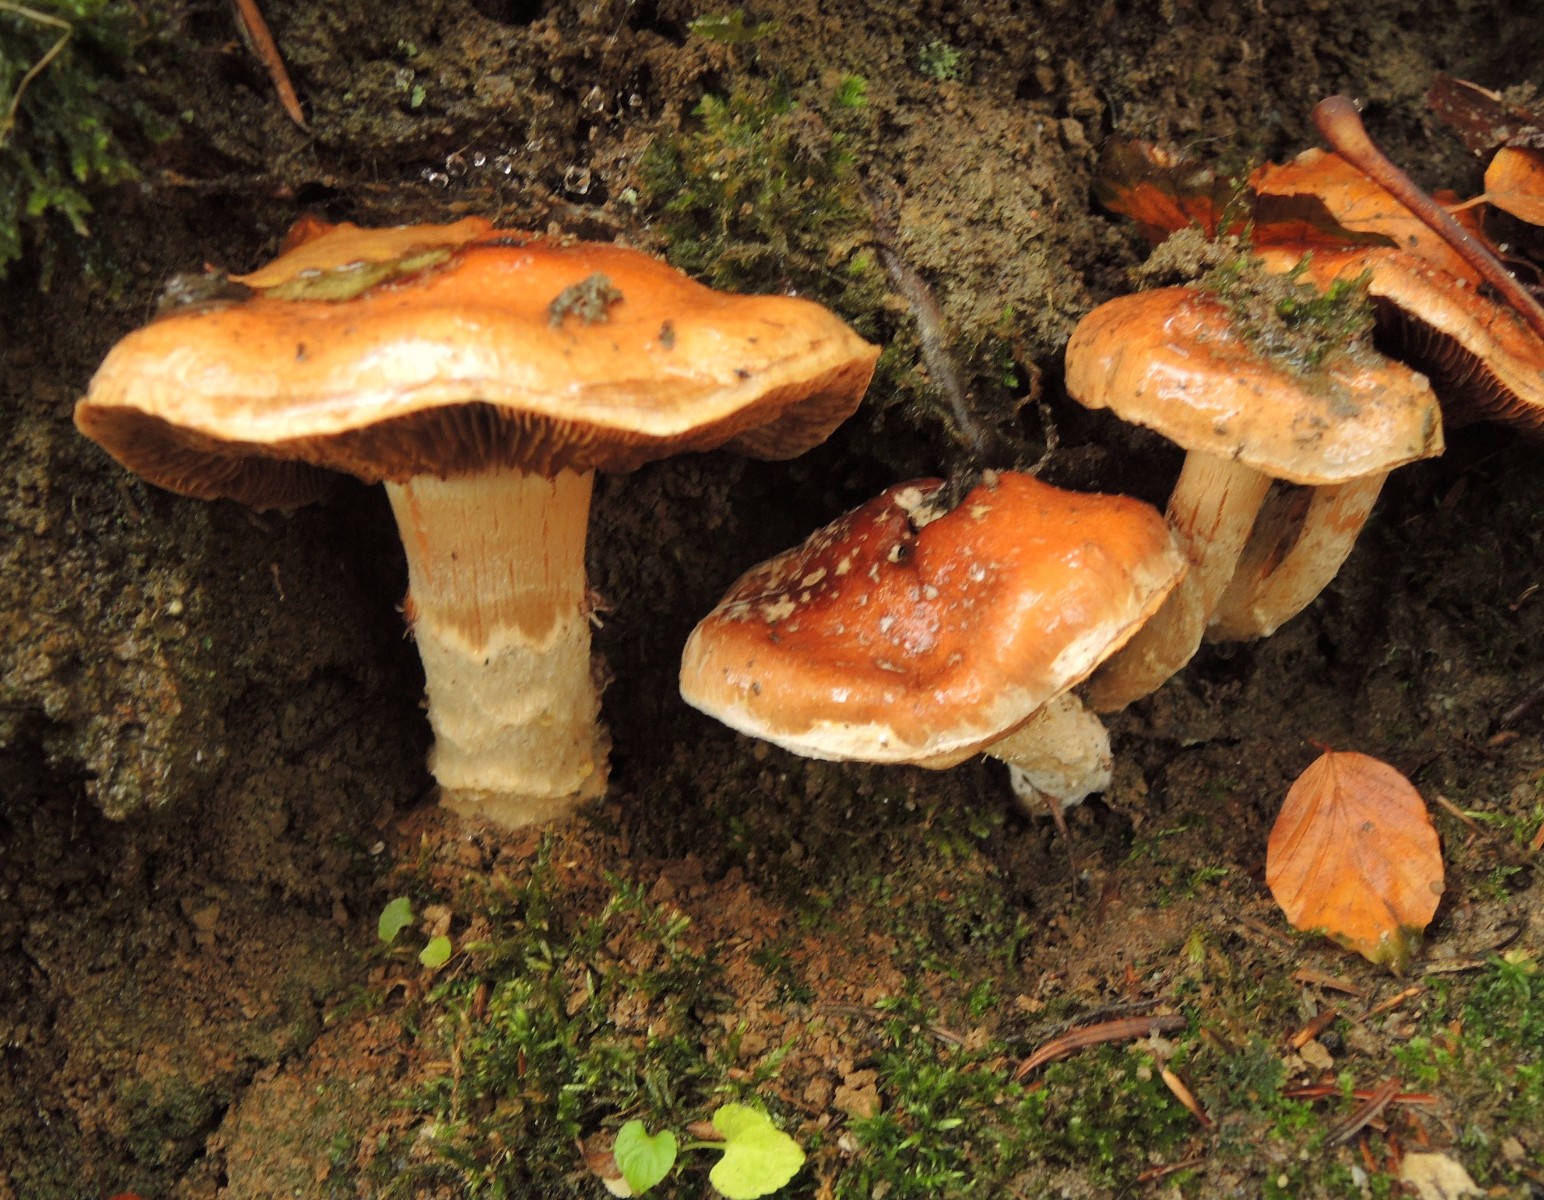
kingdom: Fungi
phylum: Basidiomycota
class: Agaricomycetes
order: Agaricales
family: Cortinariaceae
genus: Phlegmacium
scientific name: Phlegmacium vulpinum
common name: ringbæltet slørhat
